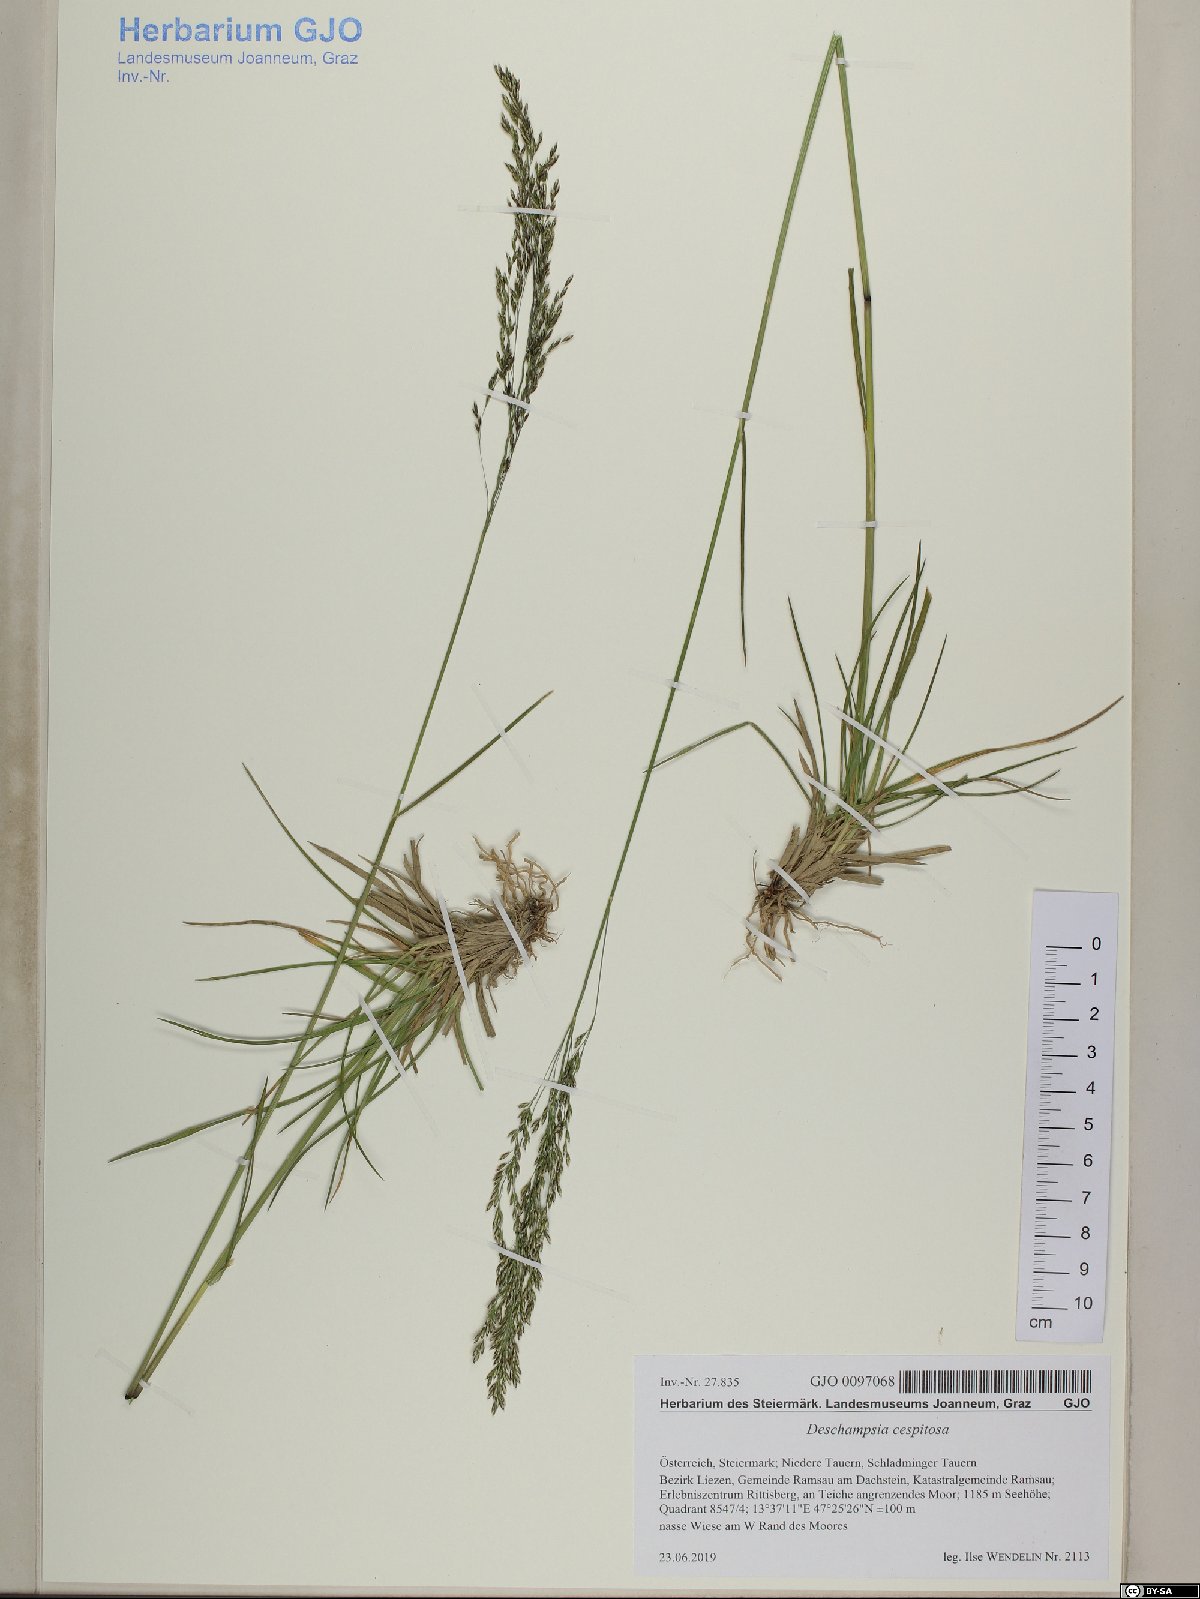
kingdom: Plantae
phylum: Tracheophyta
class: Liliopsida
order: Poales
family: Poaceae
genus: Deschampsia
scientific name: Deschampsia cespitosa
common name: Tufted hair-grass
